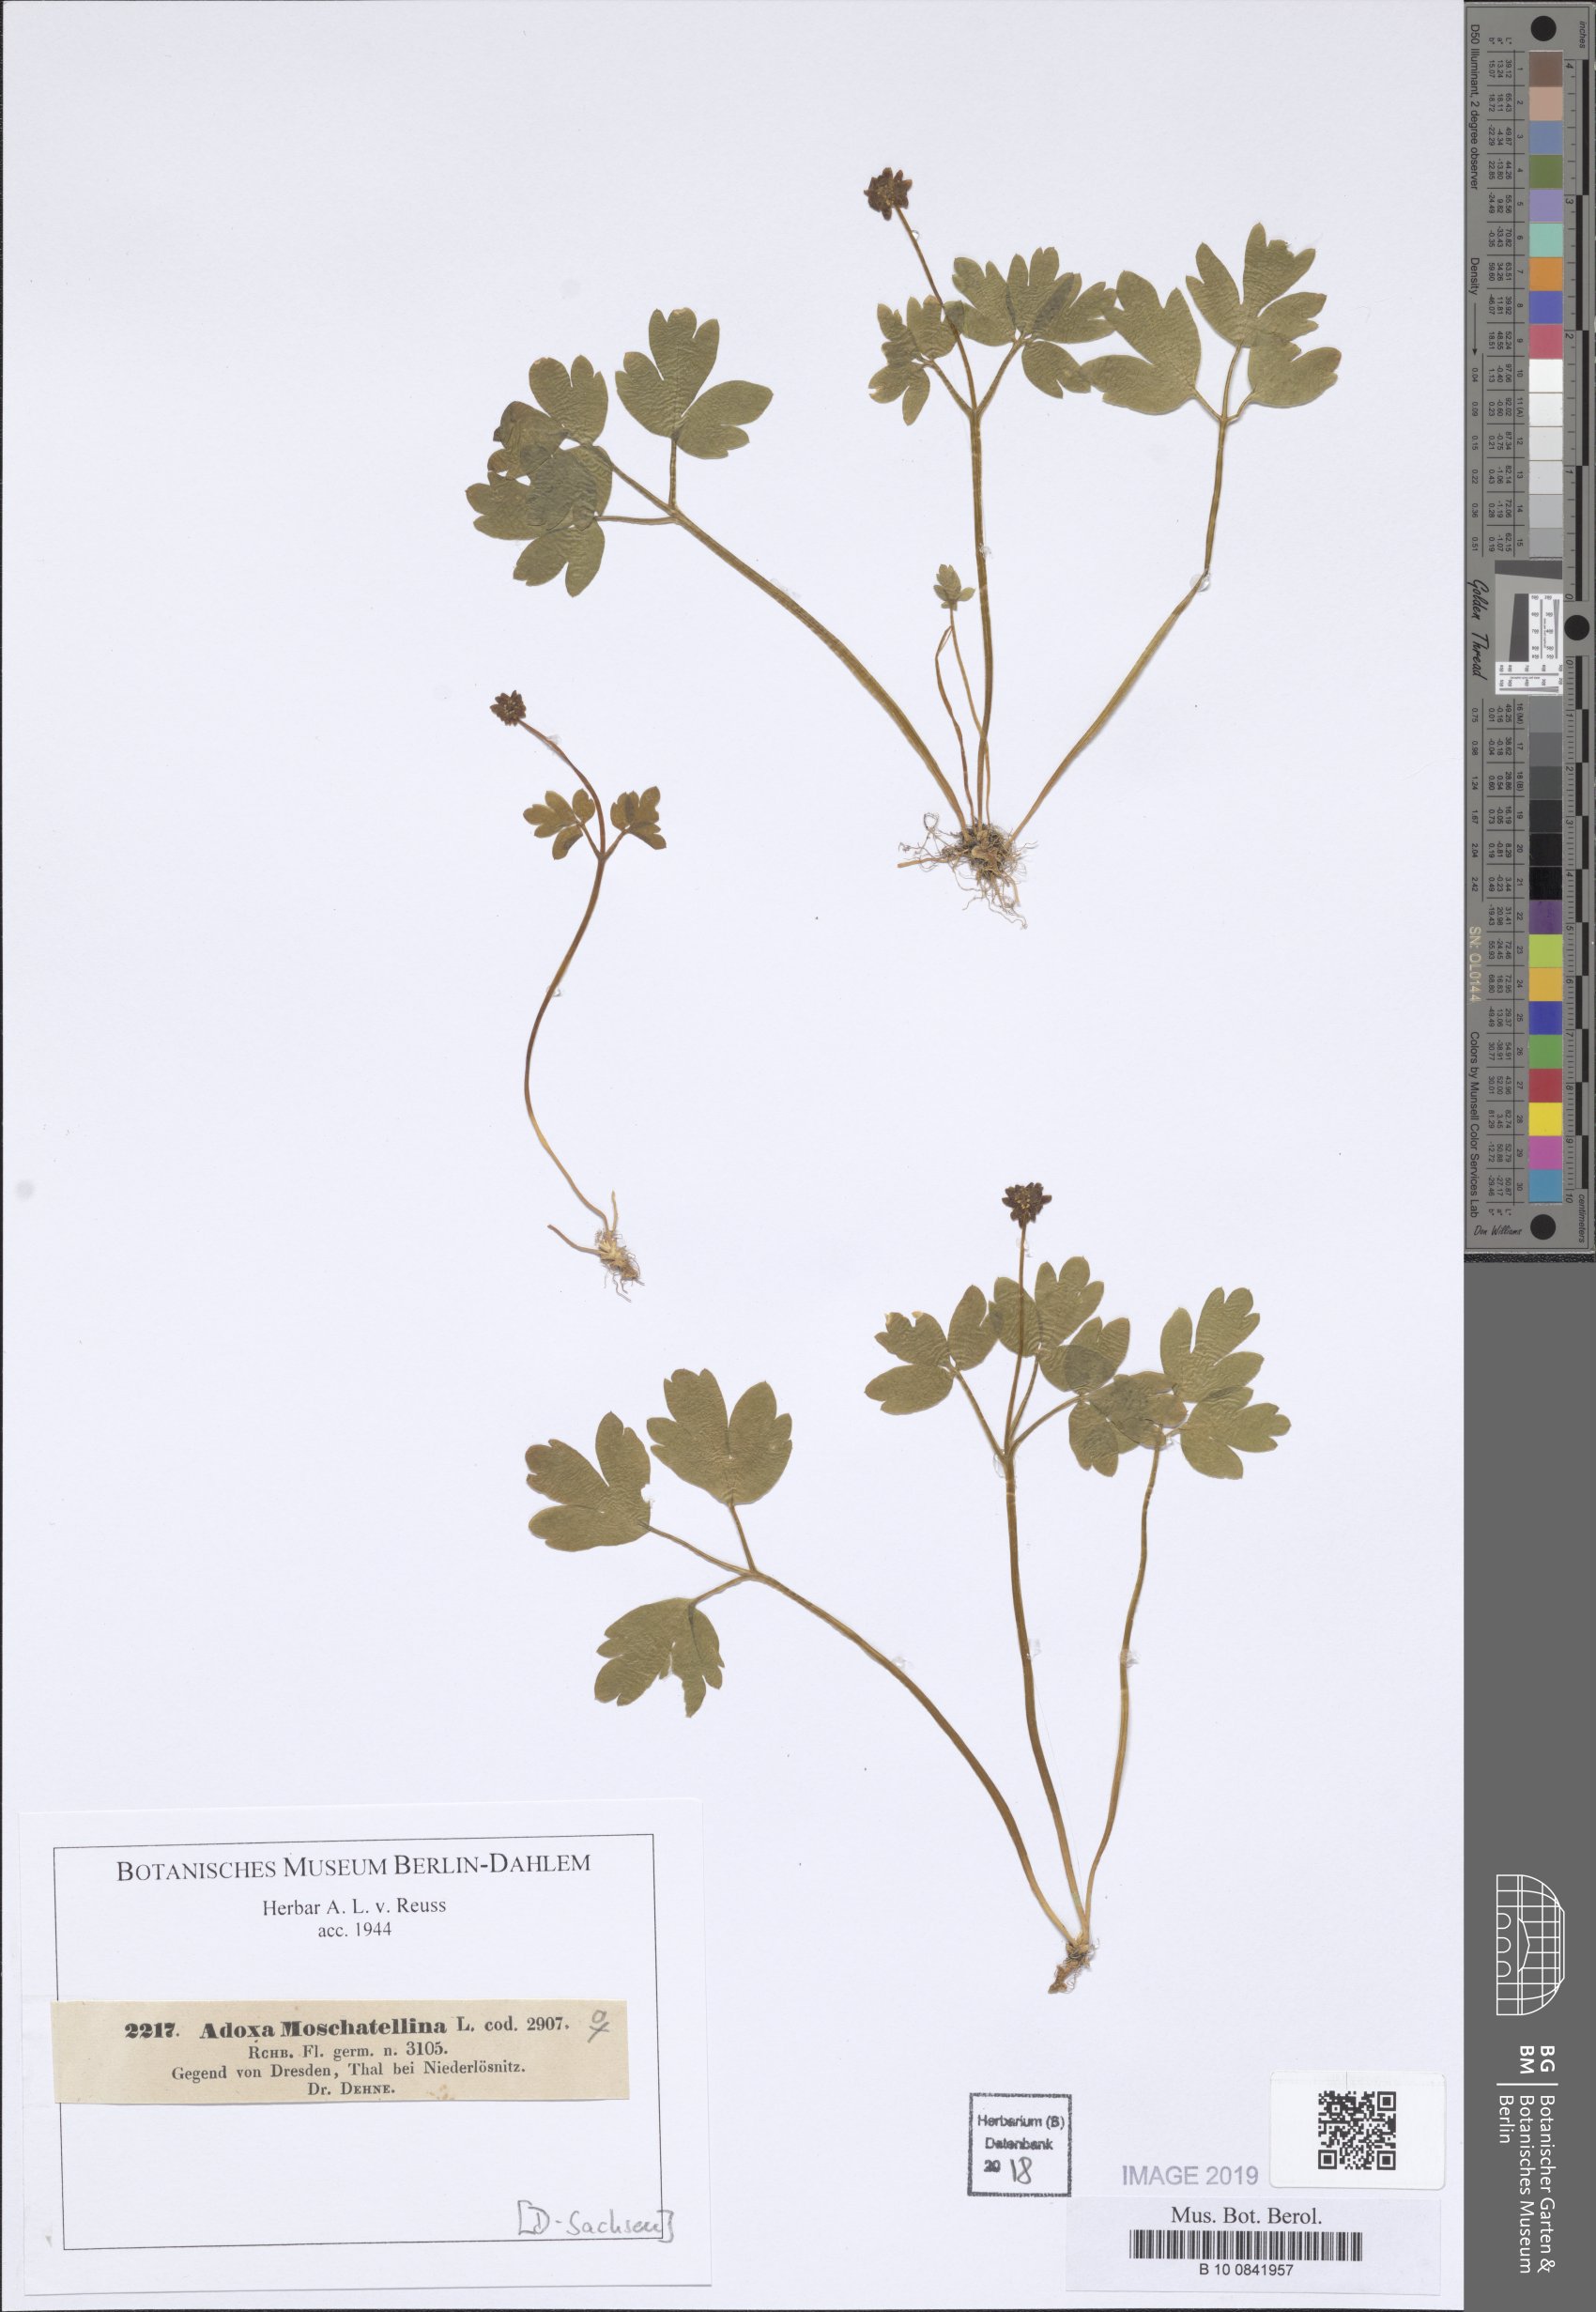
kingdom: Plantae
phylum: Tracheophyta
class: Magnoliopsida
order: Dipsacales
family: Viburnaceae
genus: Adoxa
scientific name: Adoxa moschatellina
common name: Moschatel
